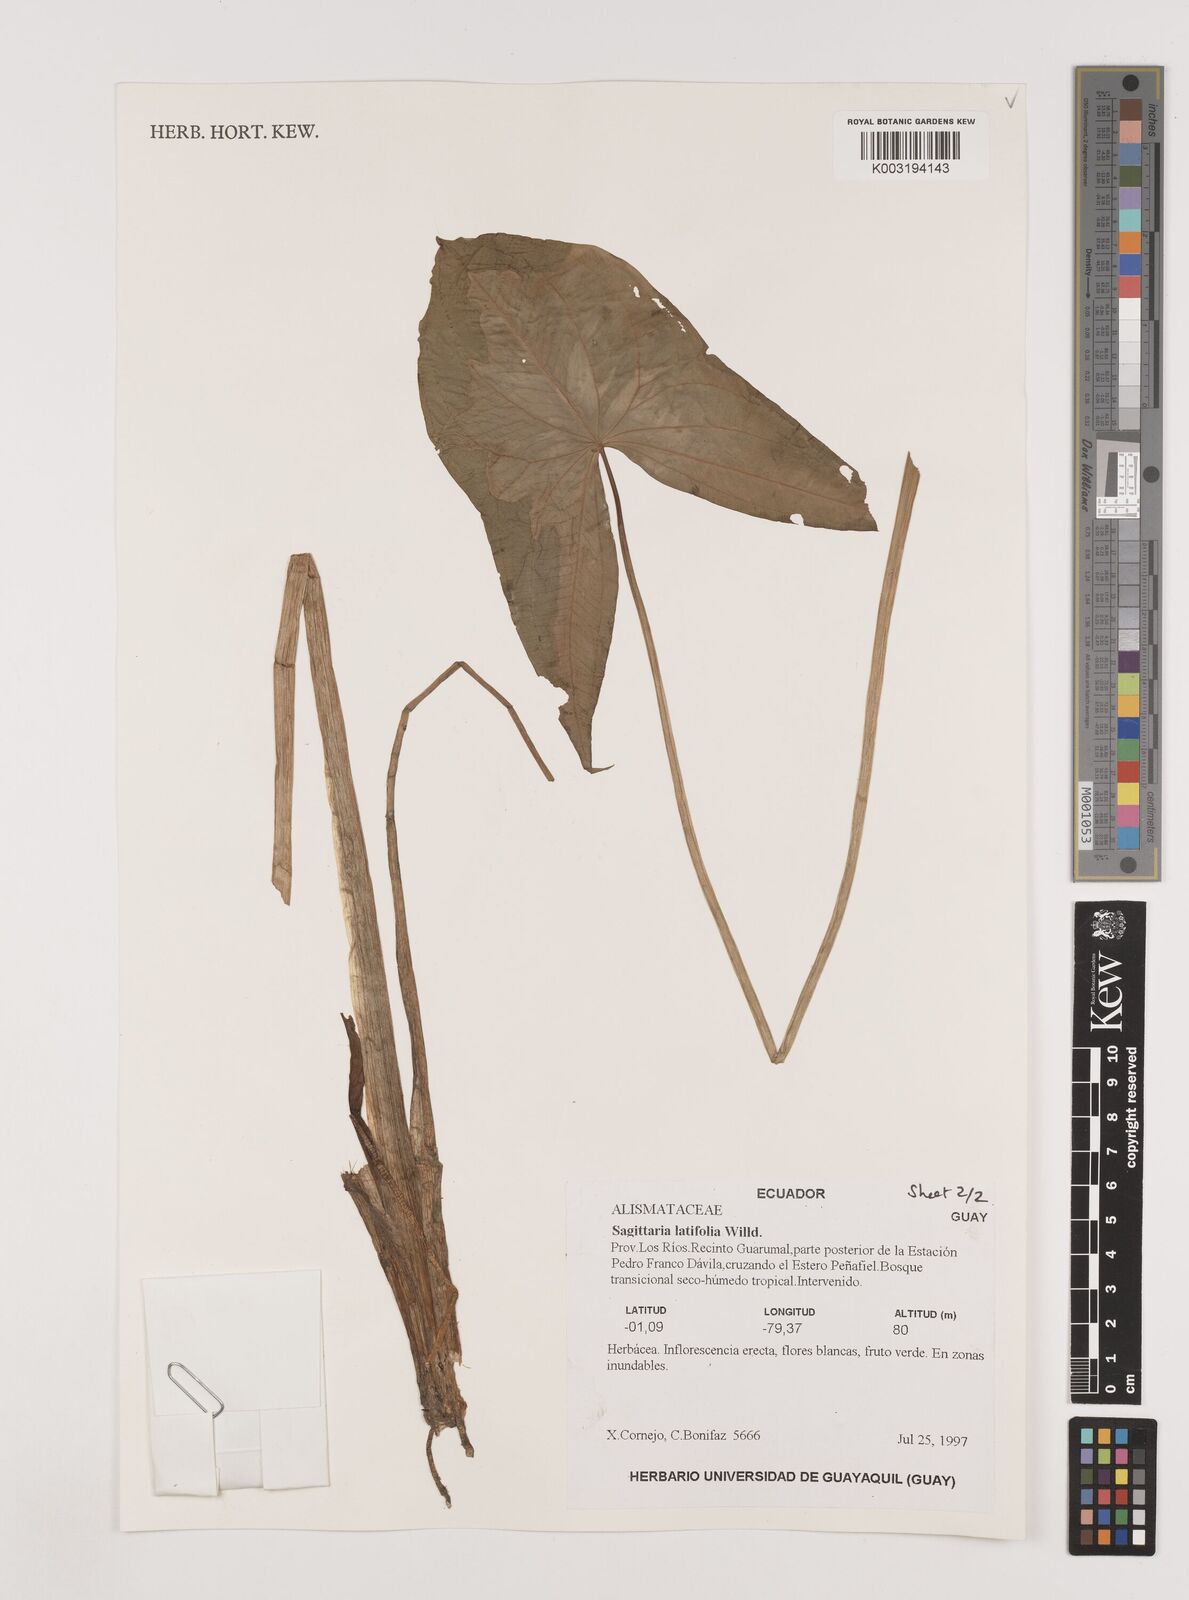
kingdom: Plantae
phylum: Tracheophyta
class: Liliopsida
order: Alismatales
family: Alismataceae
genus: Sagittaria
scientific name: Sagittaria latifolia
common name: Duck-potato
